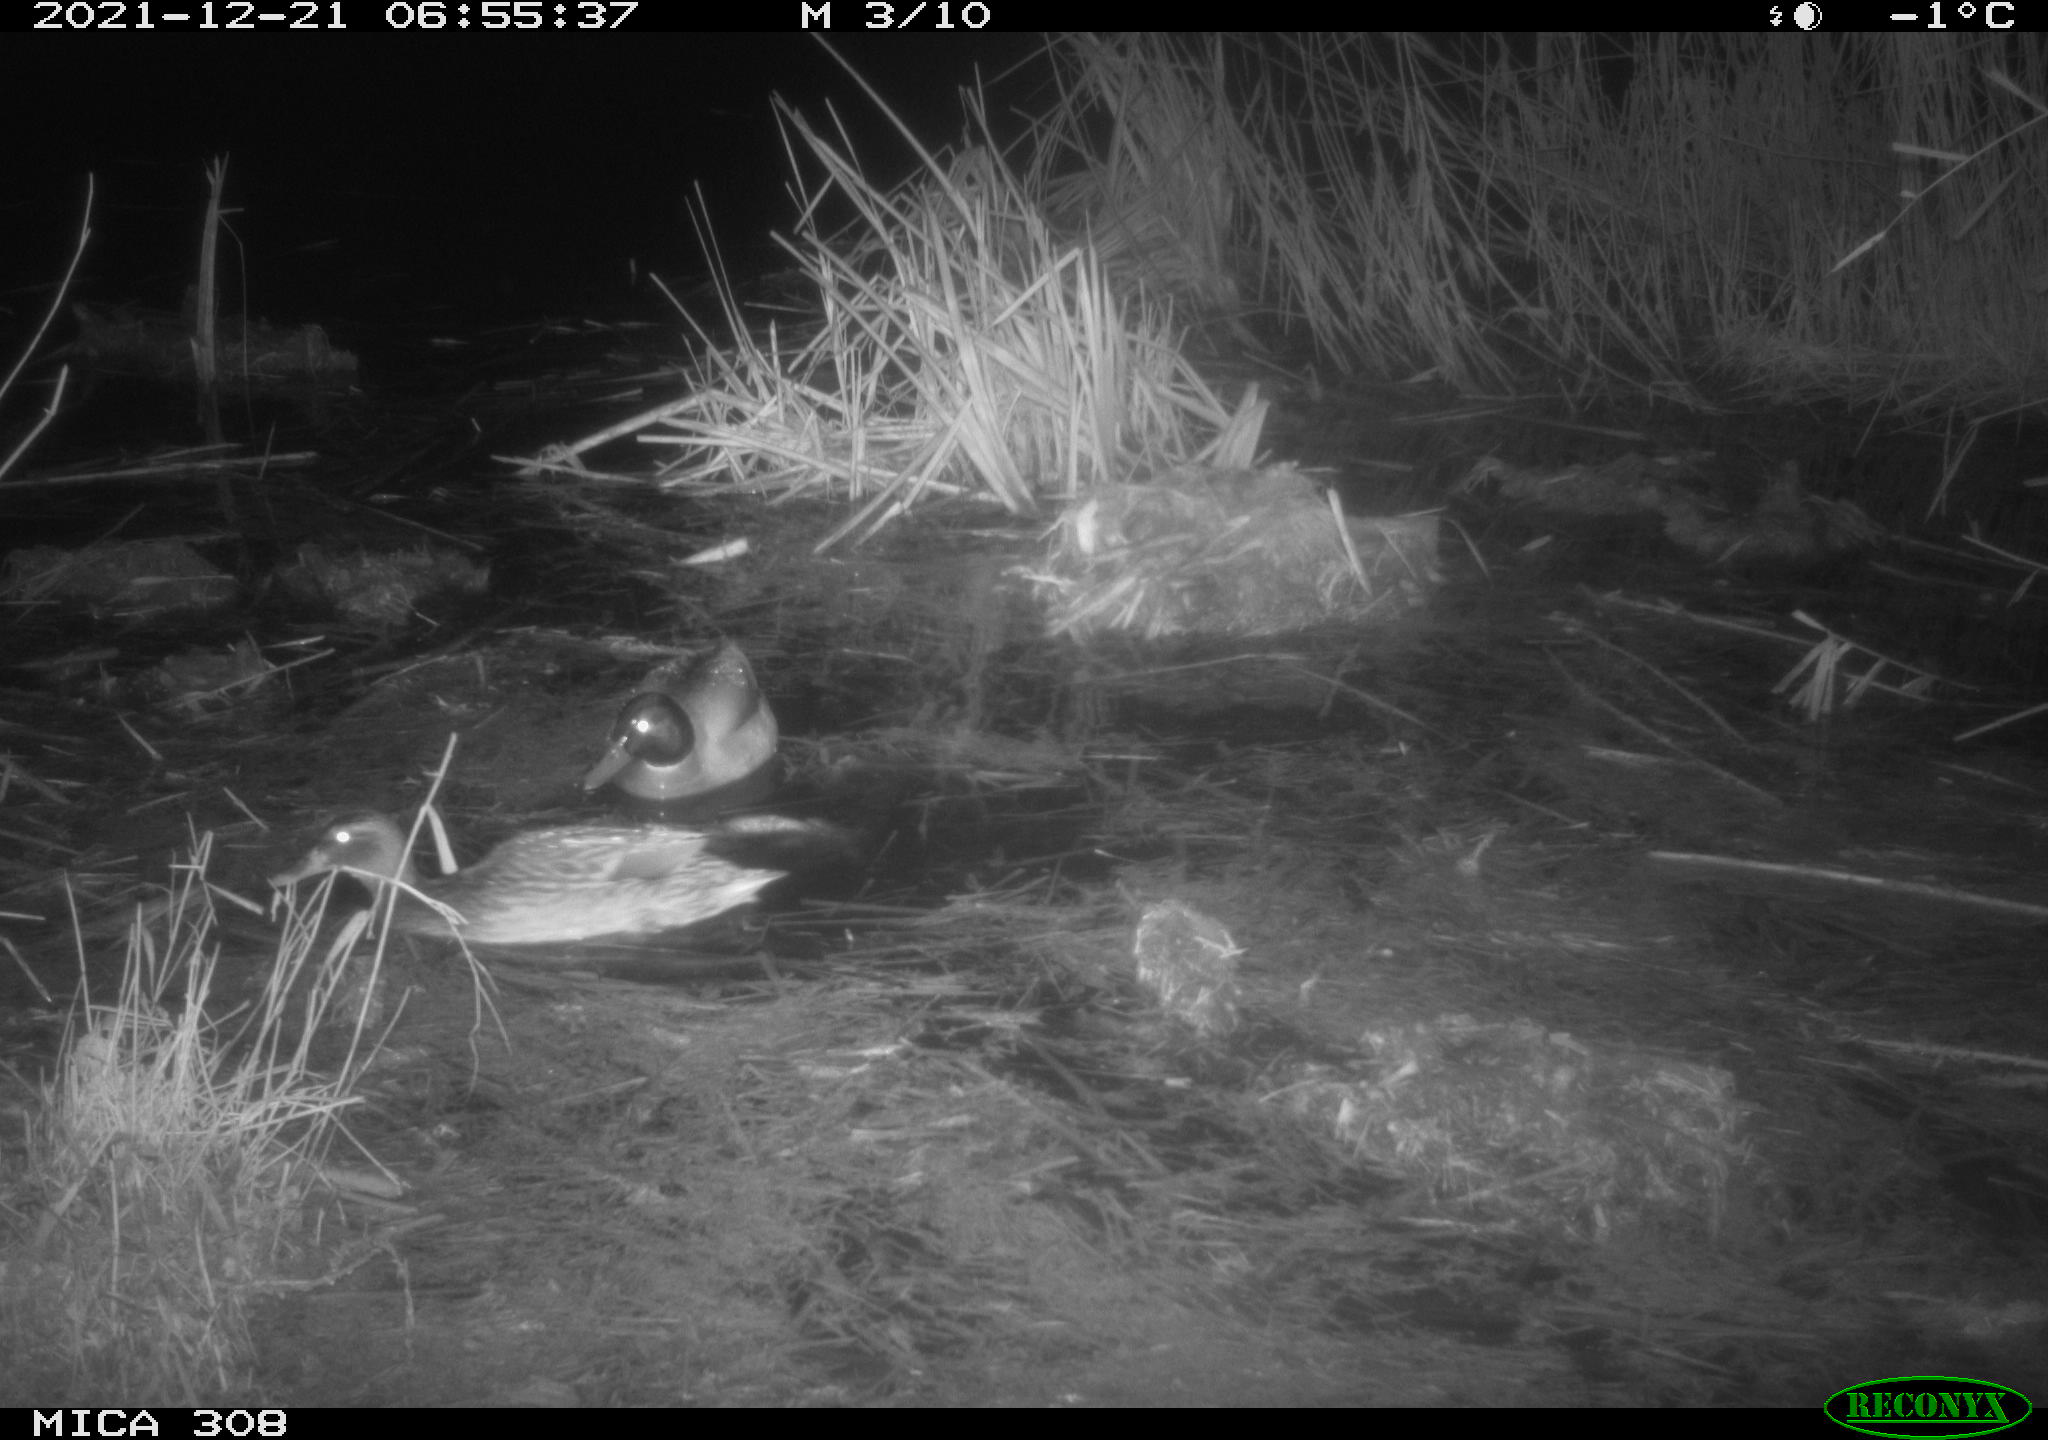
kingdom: Animalia
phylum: Chordata
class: Aves
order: Anseriformes
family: Anatidae
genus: Anas
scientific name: Anas platyrhynchos
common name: Mallard
